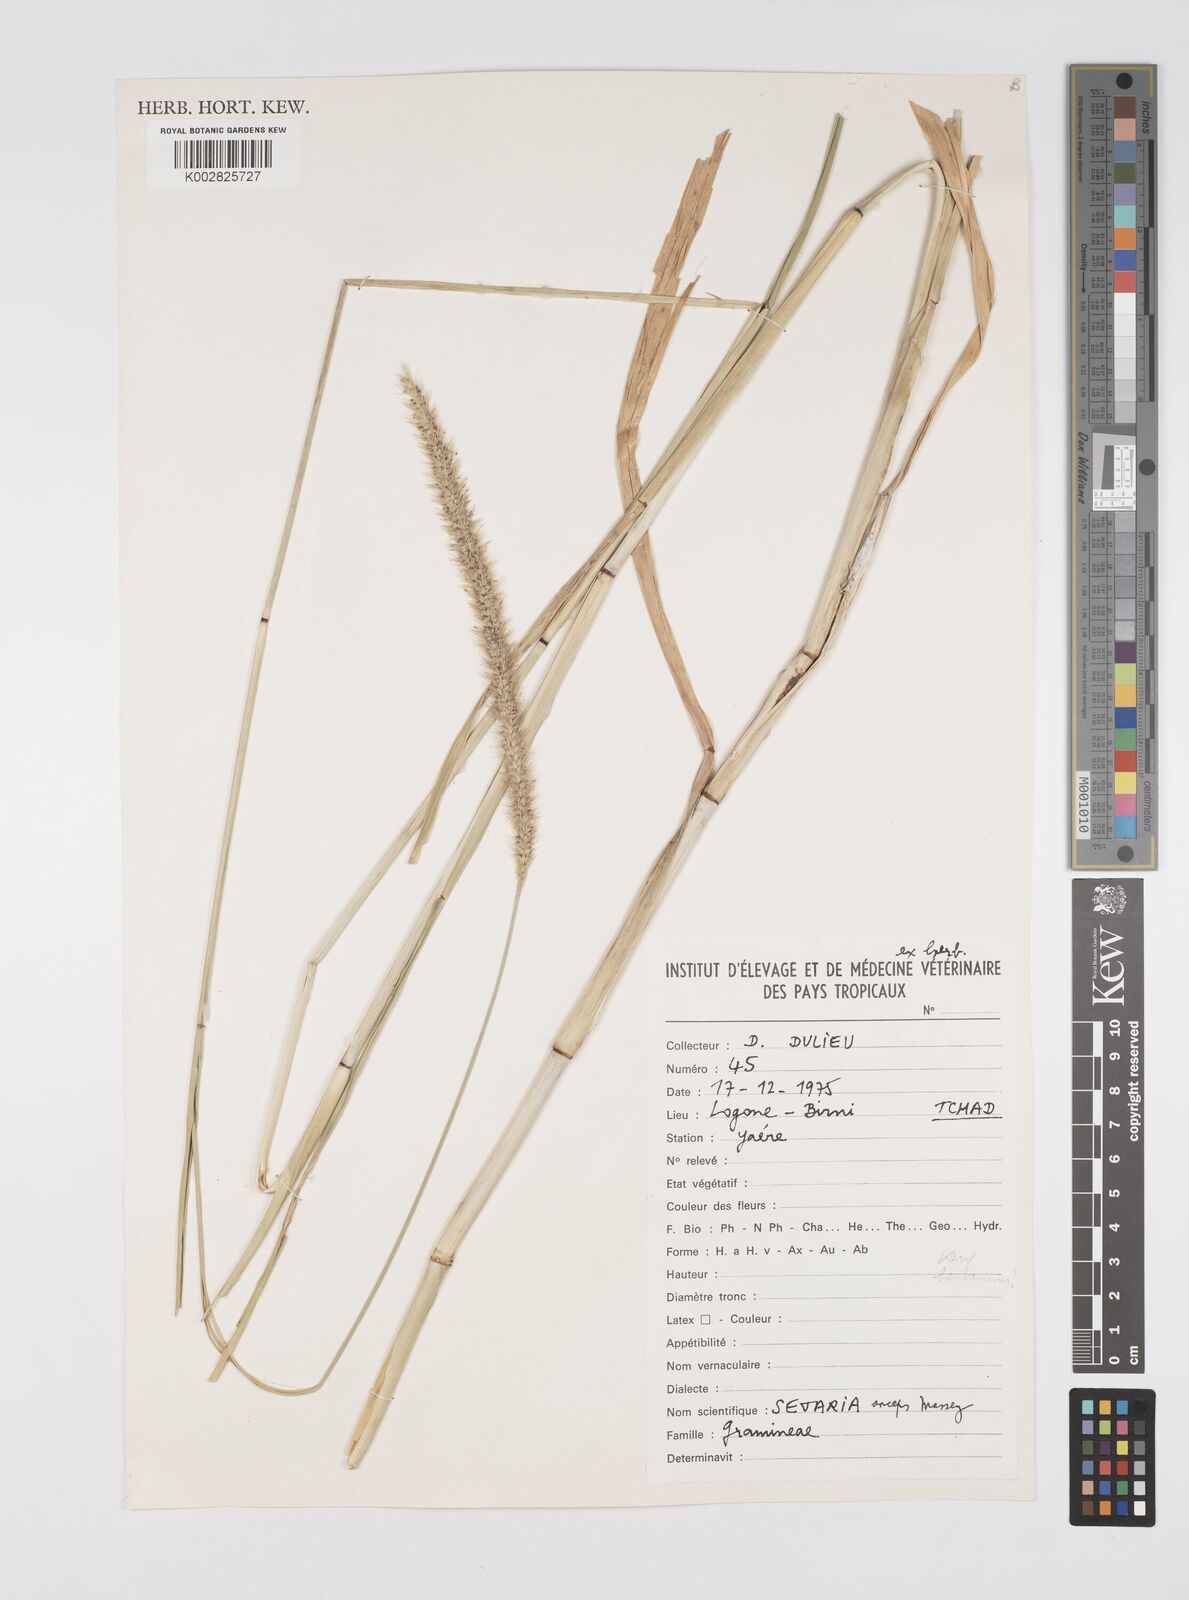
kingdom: Plantae
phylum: Tracheophyta
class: Liliopsida
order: Poales
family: Poaceae
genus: Setaria
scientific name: Setaria sphacelata
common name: African bristlegrass
